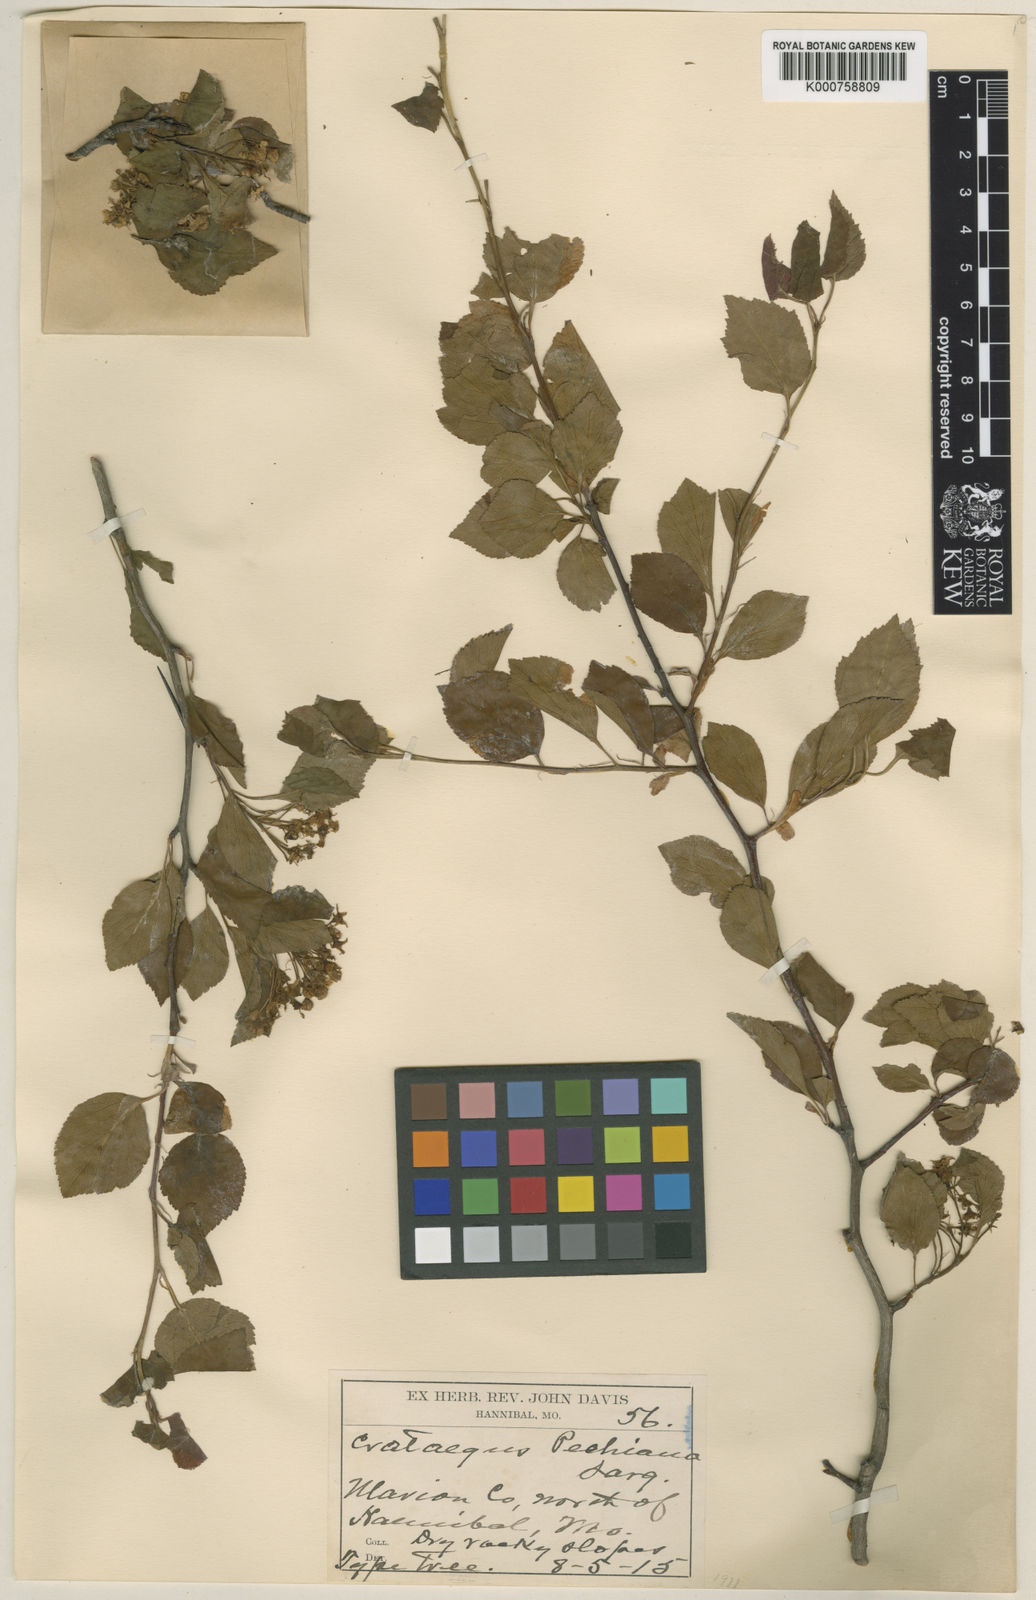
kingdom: Plantae
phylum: Tracheophyta
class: Magnoliopsida
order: Rosales
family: Rosaceae
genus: Crataegus
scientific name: Crataegus viridis
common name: Southernthorn
